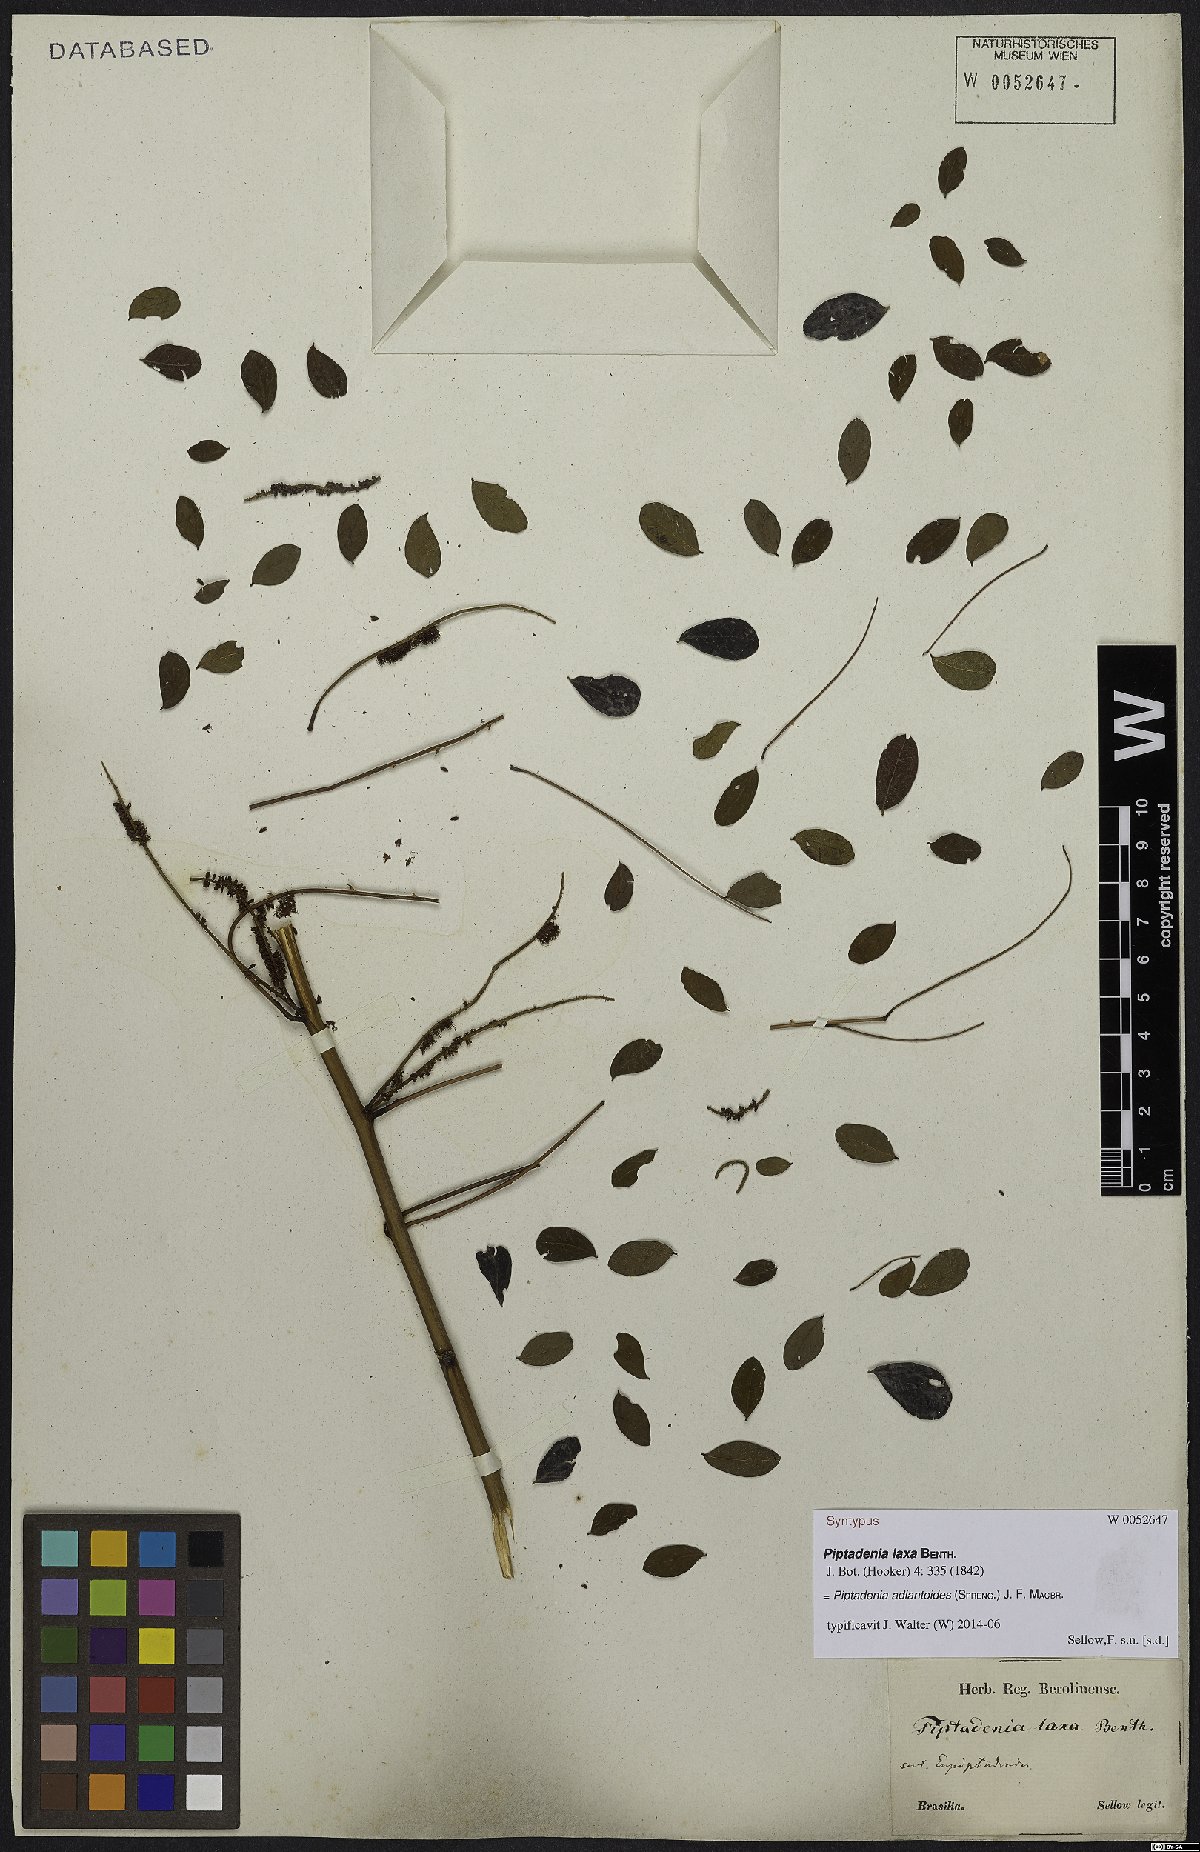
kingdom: Plantae
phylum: Tracheophyta
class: Magnoliopsida
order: Fabales
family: Fabaceae
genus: Piptadenia
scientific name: Piptadenia adiantoides
